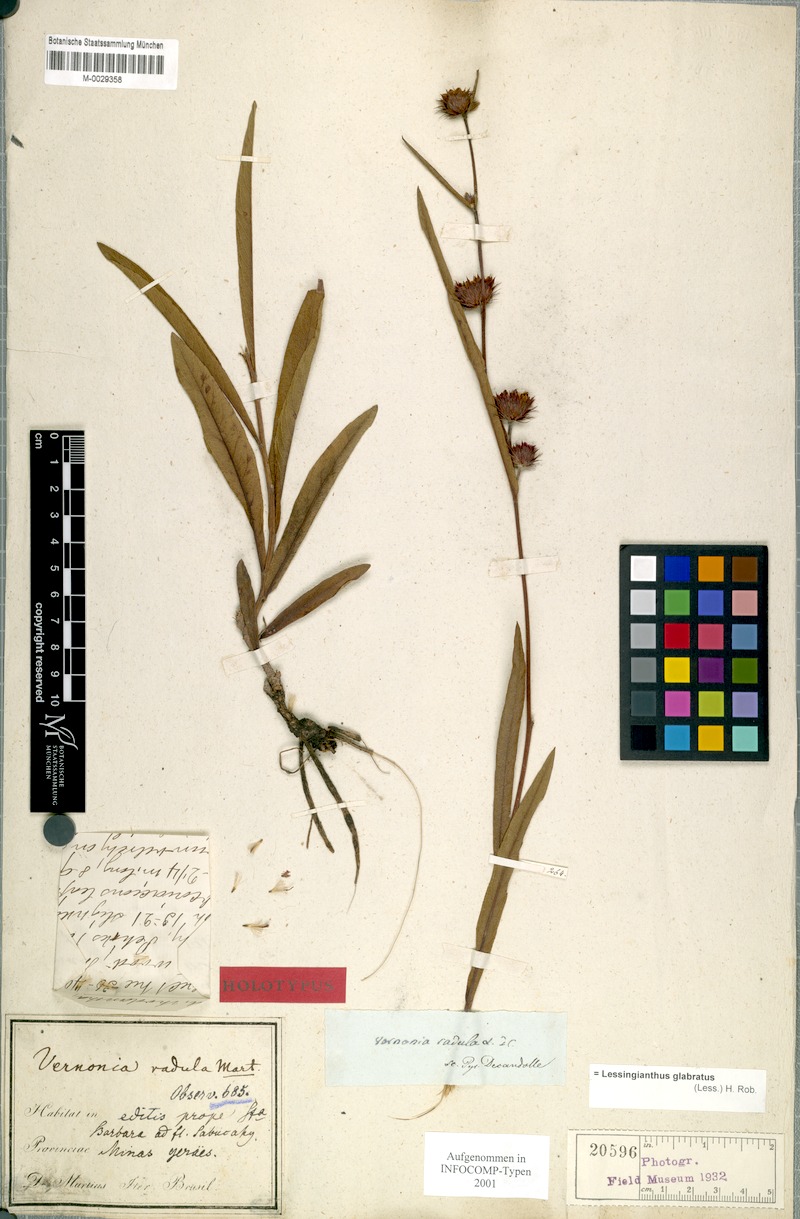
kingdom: Plantae
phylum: Tracheophyta
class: Magnoliopsida
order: Asterales
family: Asteraceae
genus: Lessingianthus
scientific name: Lessingianthus glabratus
